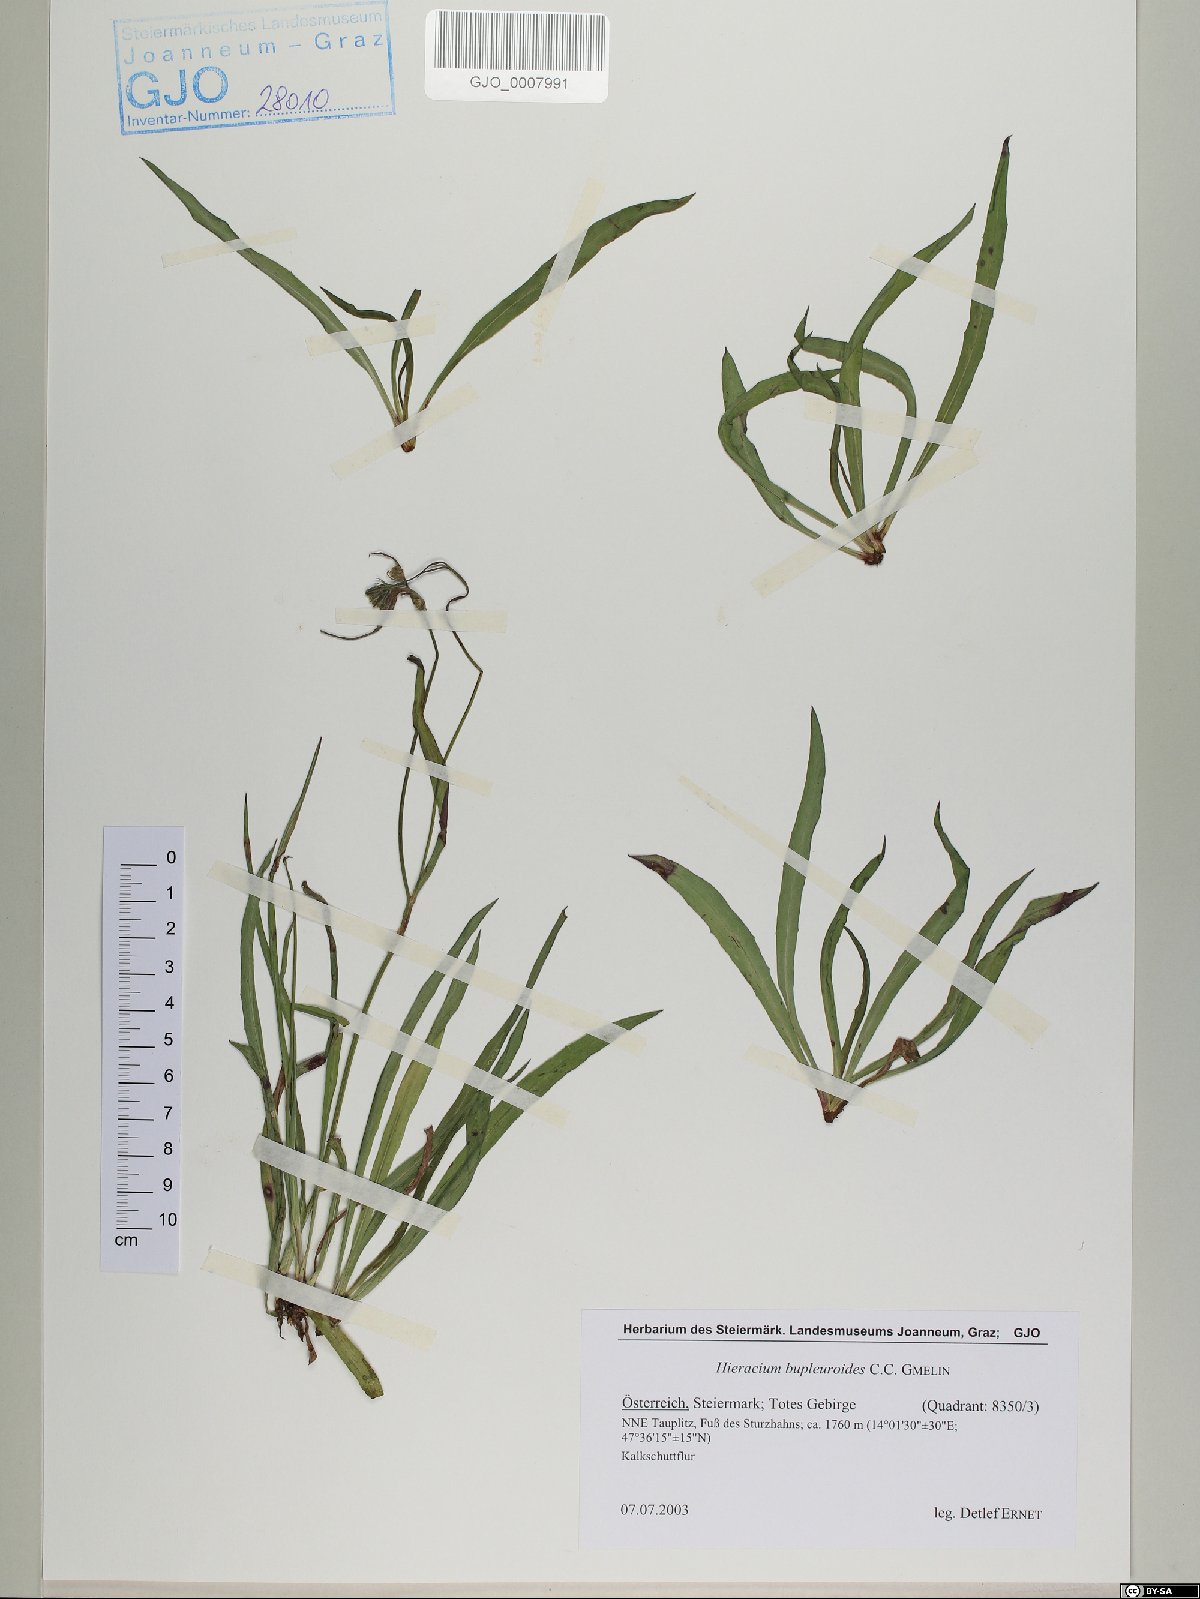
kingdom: Plantae
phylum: Tracheophyta
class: Magnoliopsida
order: Asterales
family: Asteraceae
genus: Hieracium
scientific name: Hieracium bupleuroides
